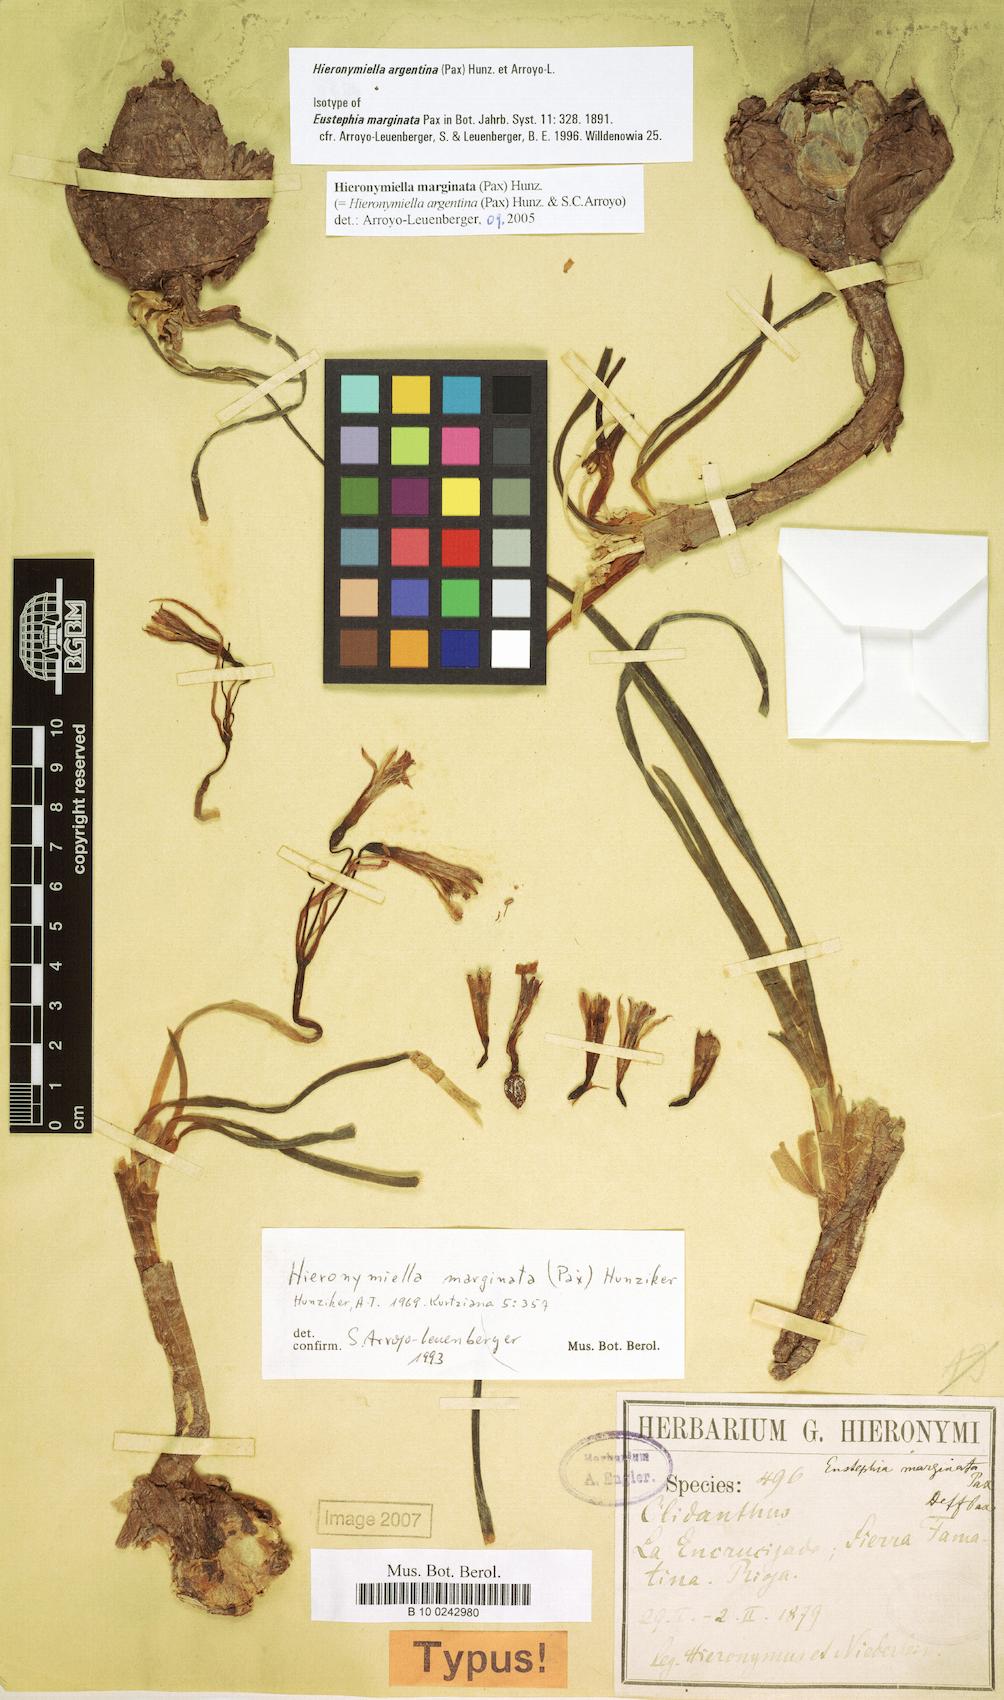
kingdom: Plantae
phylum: Tracheophyta
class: Liliopsida
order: Asparagales
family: Amaryllidaceae
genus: Hieronymiella
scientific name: Hieronymiella argentina
